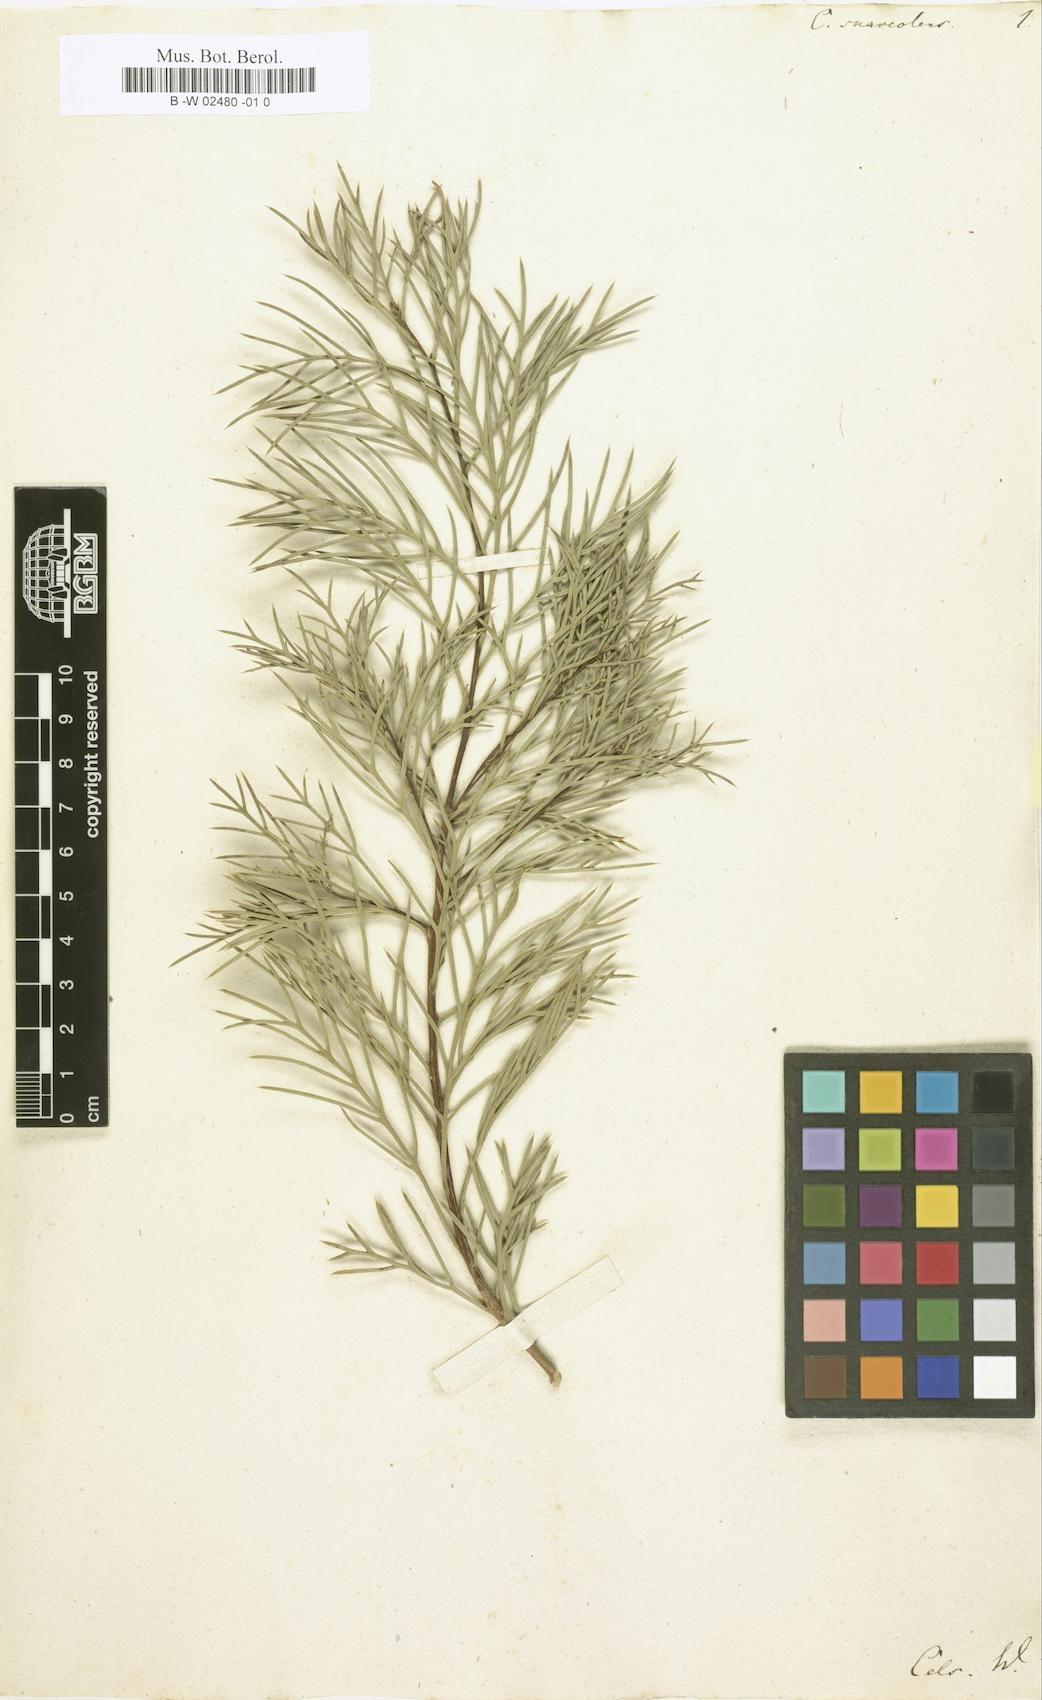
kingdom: Plantae
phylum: Tracheophyta
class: Magnoliopsida
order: Proteales
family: Proteaceae
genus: Hakea
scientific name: Hakea
